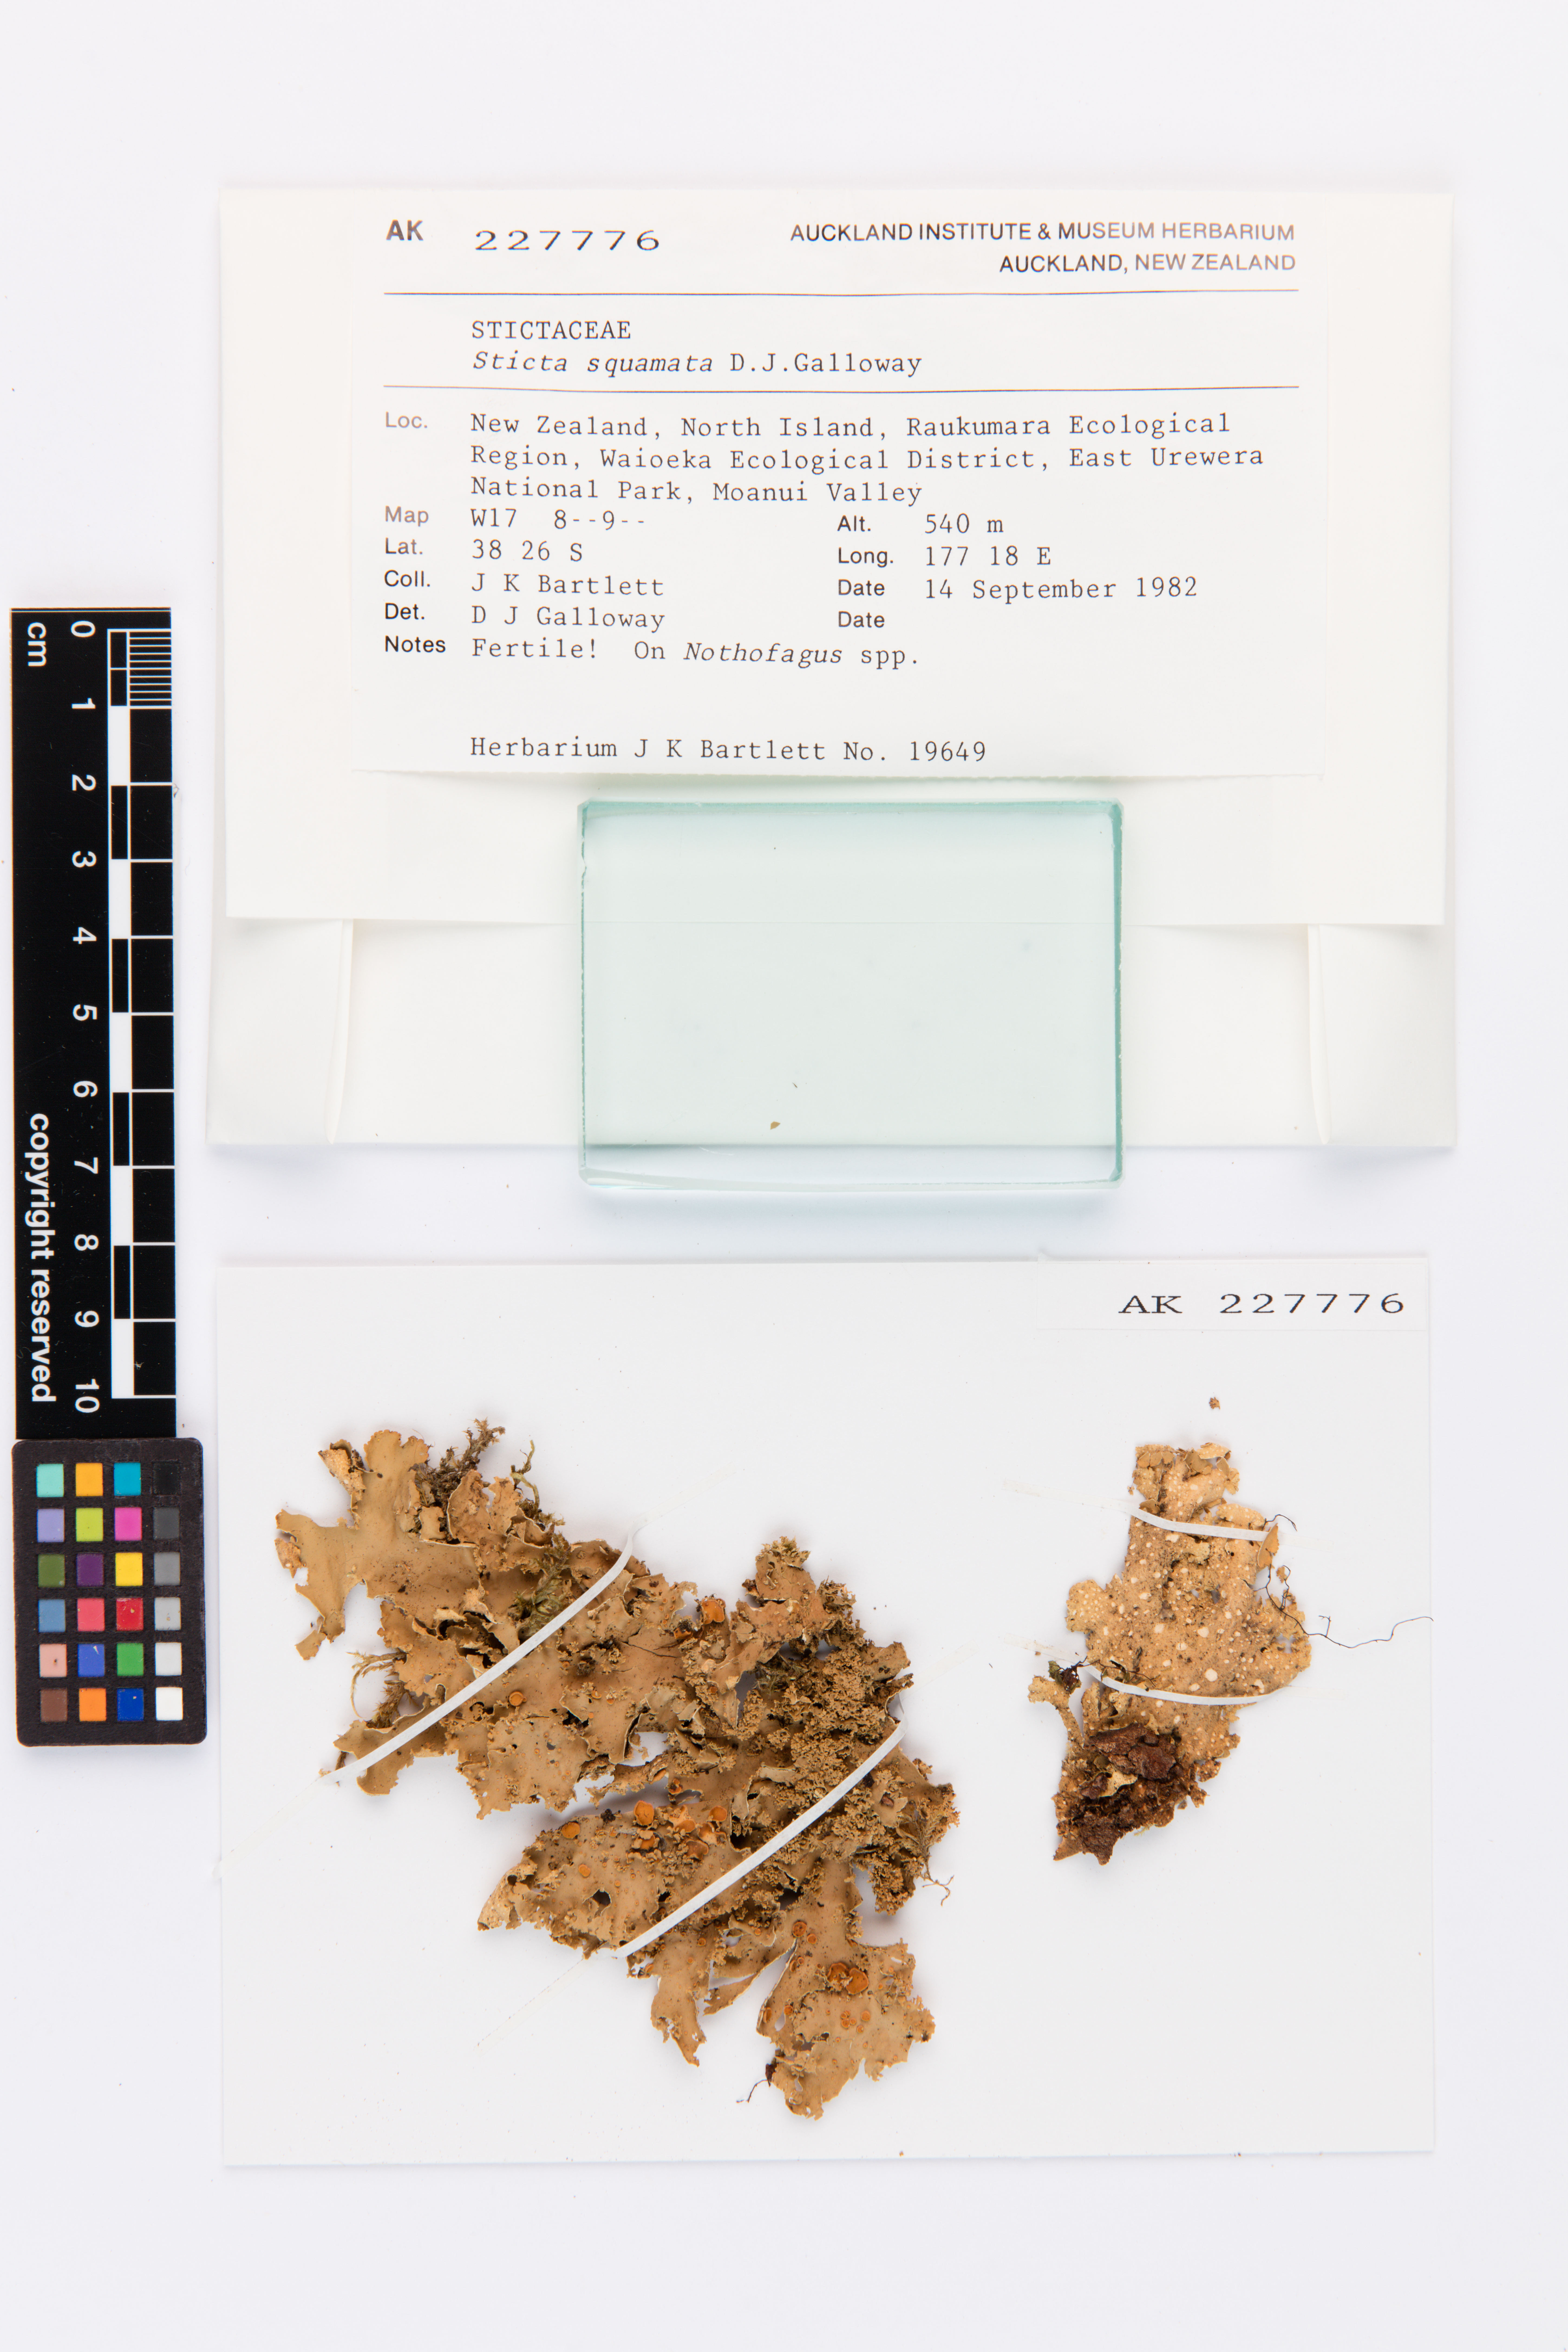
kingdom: Fungi
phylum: Ascomycota
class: Lecanoromycetes
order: Peltigerales
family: Lobariaceae
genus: Sticta
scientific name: Sticta squamata
